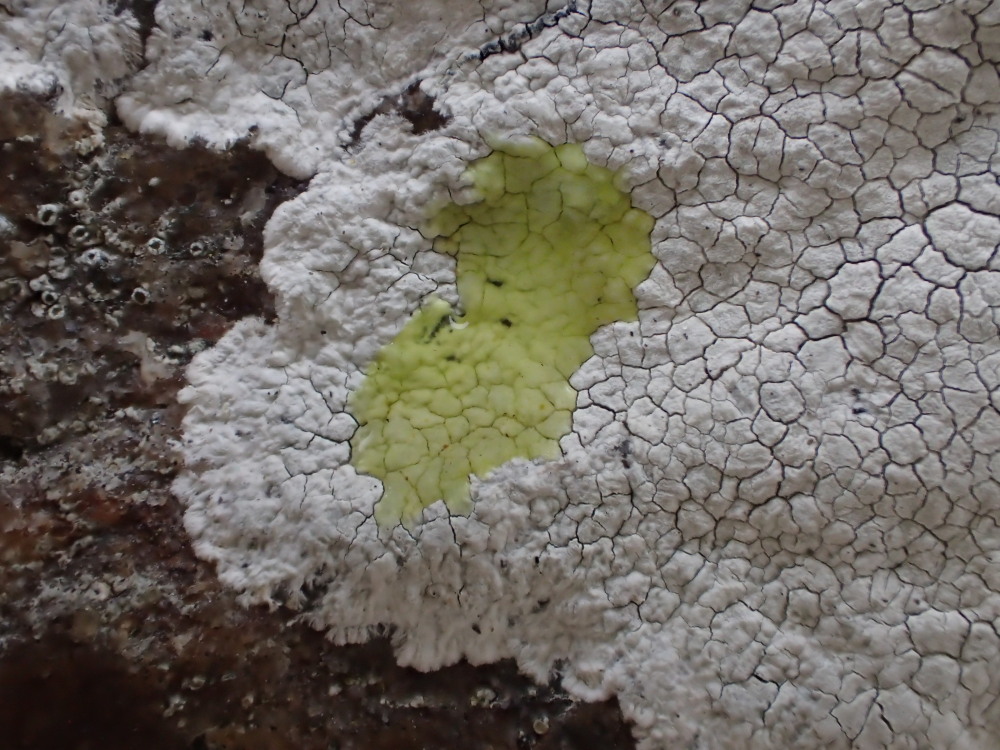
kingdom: Fungi
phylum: Ascomycota
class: Lecanoromycetes
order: Lecanorales
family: Lecanoraceae
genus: Glaucomaria
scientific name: Glaucomaria rupicola
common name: stengærde-kantskivelav
